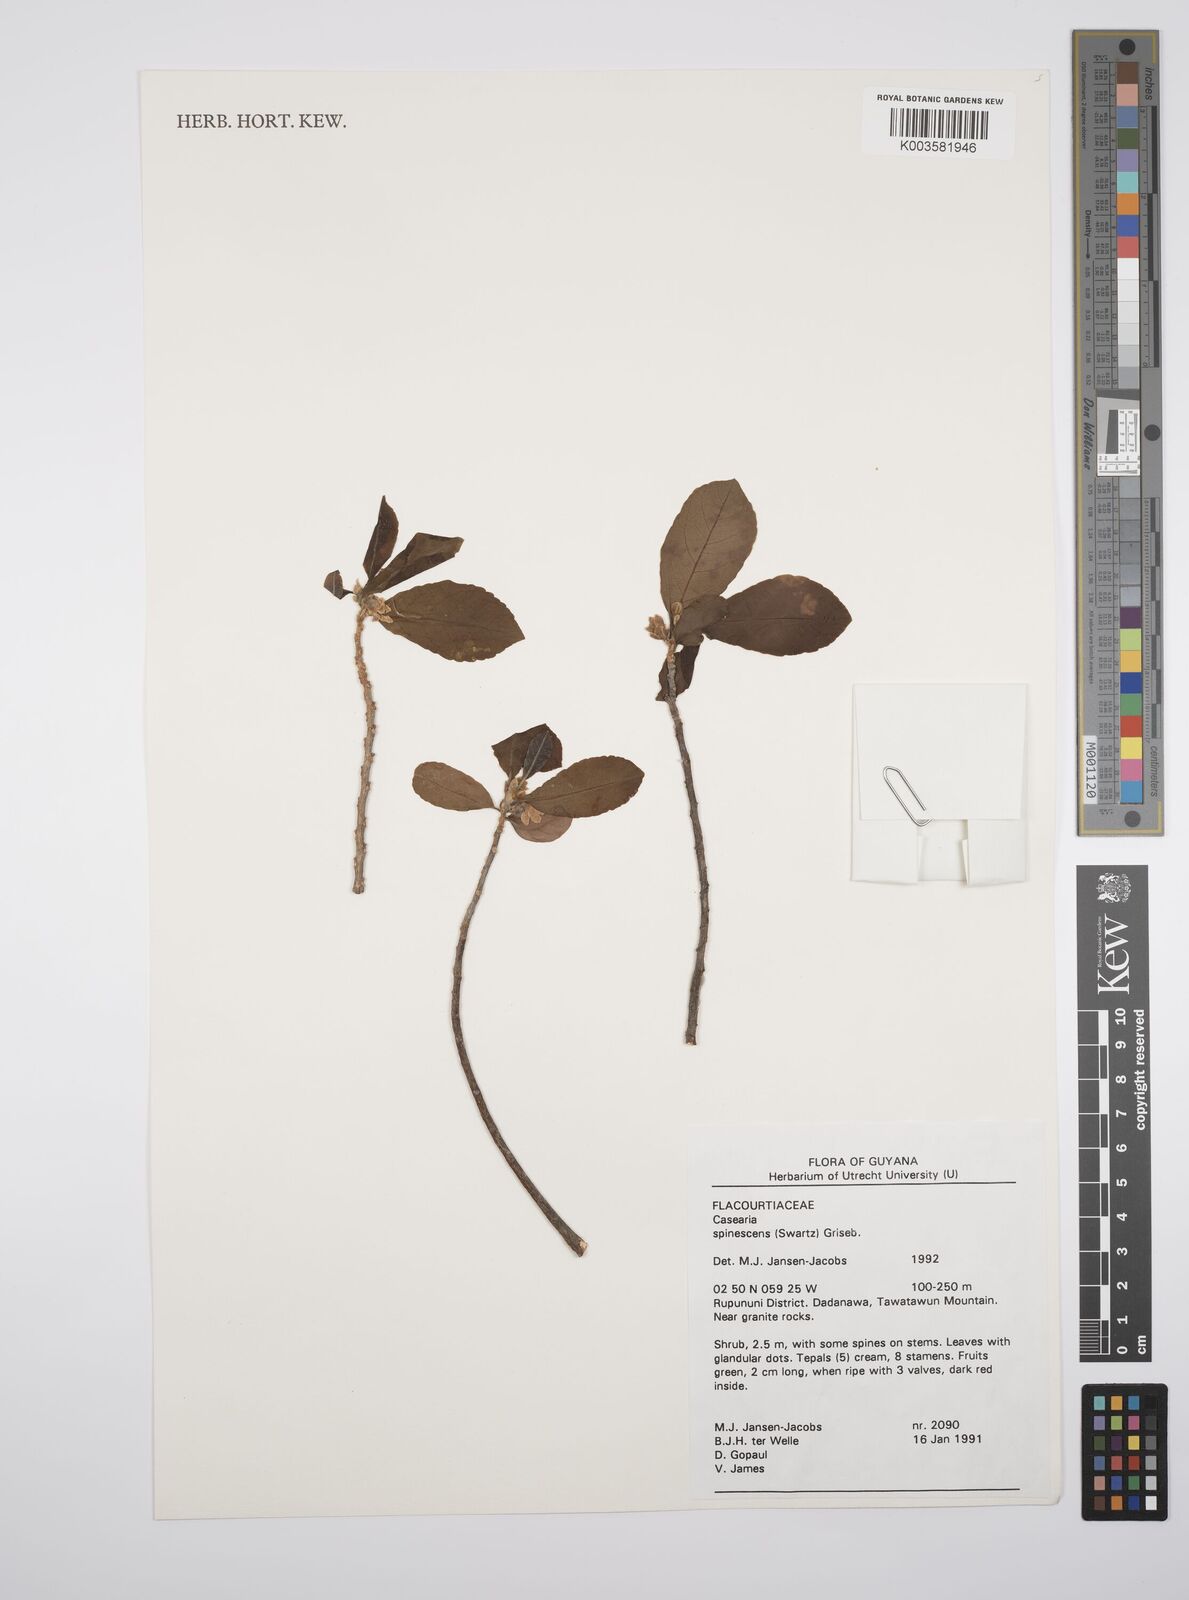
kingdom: Plantae
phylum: Tracheophyta
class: Magnoliopsida
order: Malpighiales
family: Salicaceae
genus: Casearia
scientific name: Casearia spinescens
